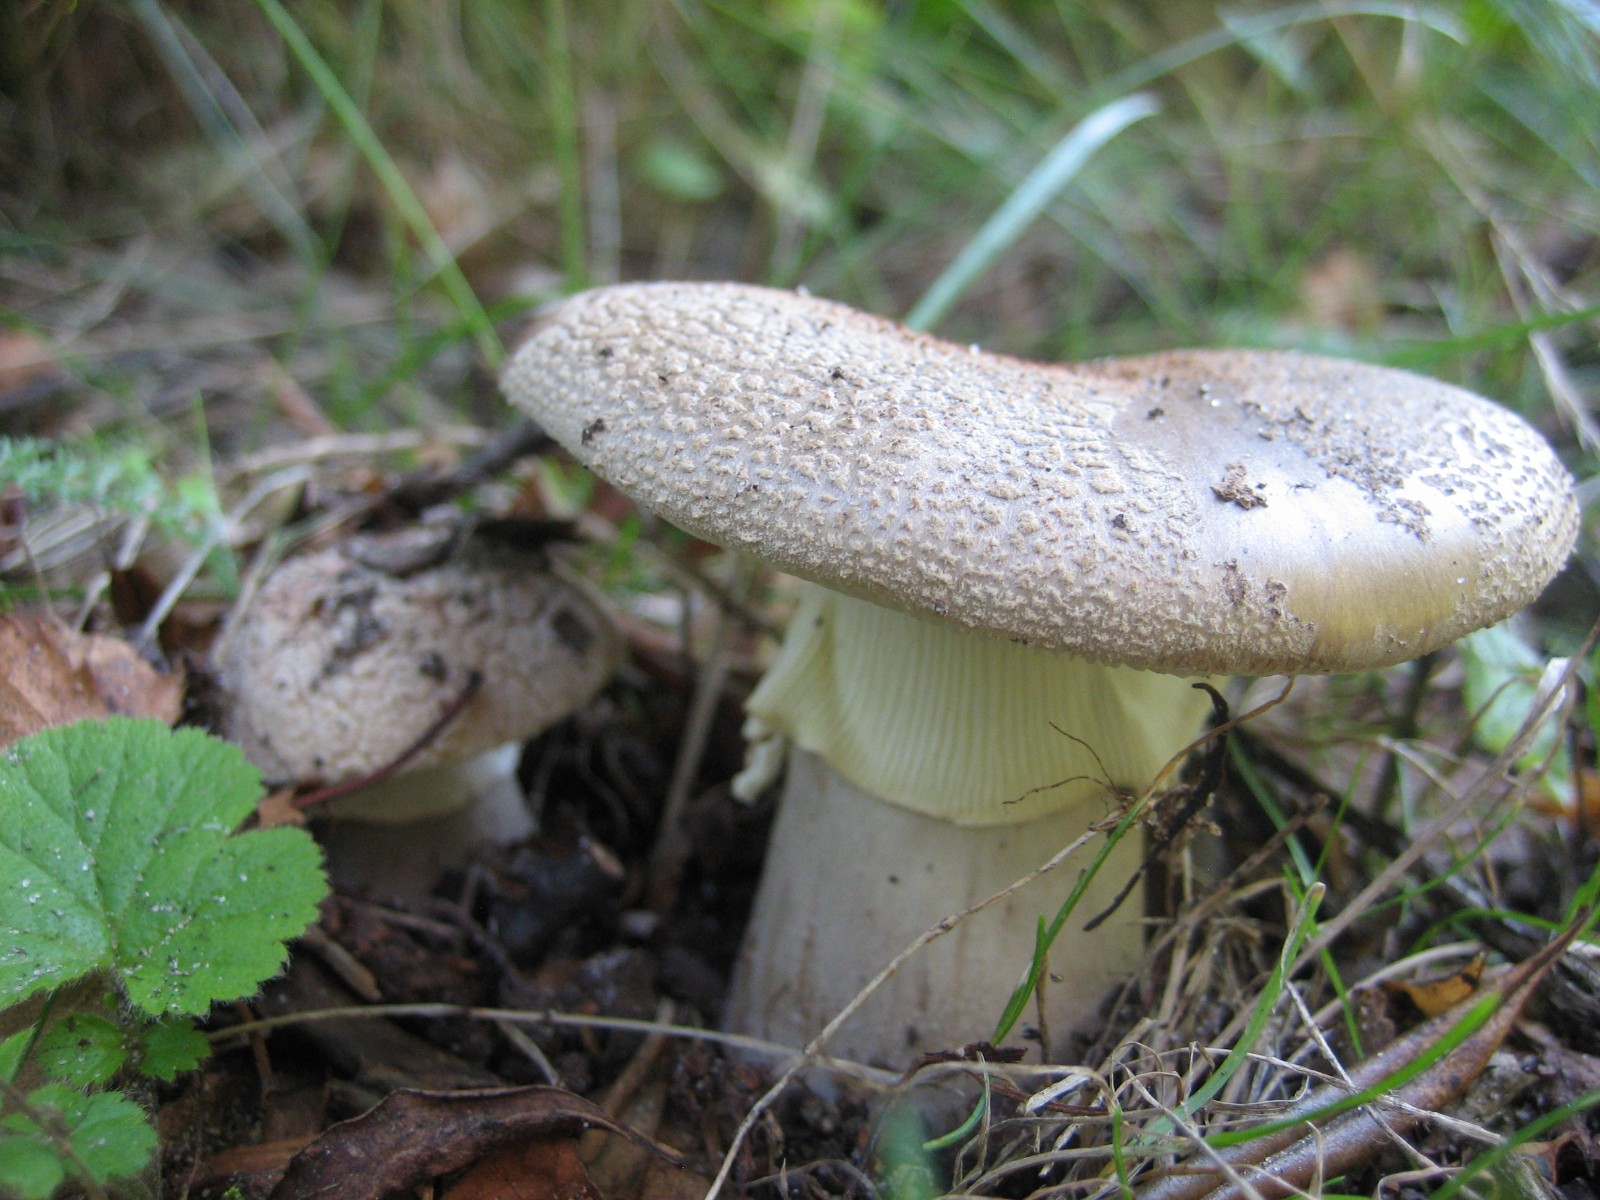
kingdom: Fungi
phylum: Basidiomycota
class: Agaricomycetes
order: Agaricales
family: Amanitaceae
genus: Amanita
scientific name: Amanita rubescens
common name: rødmende fluesvamp
